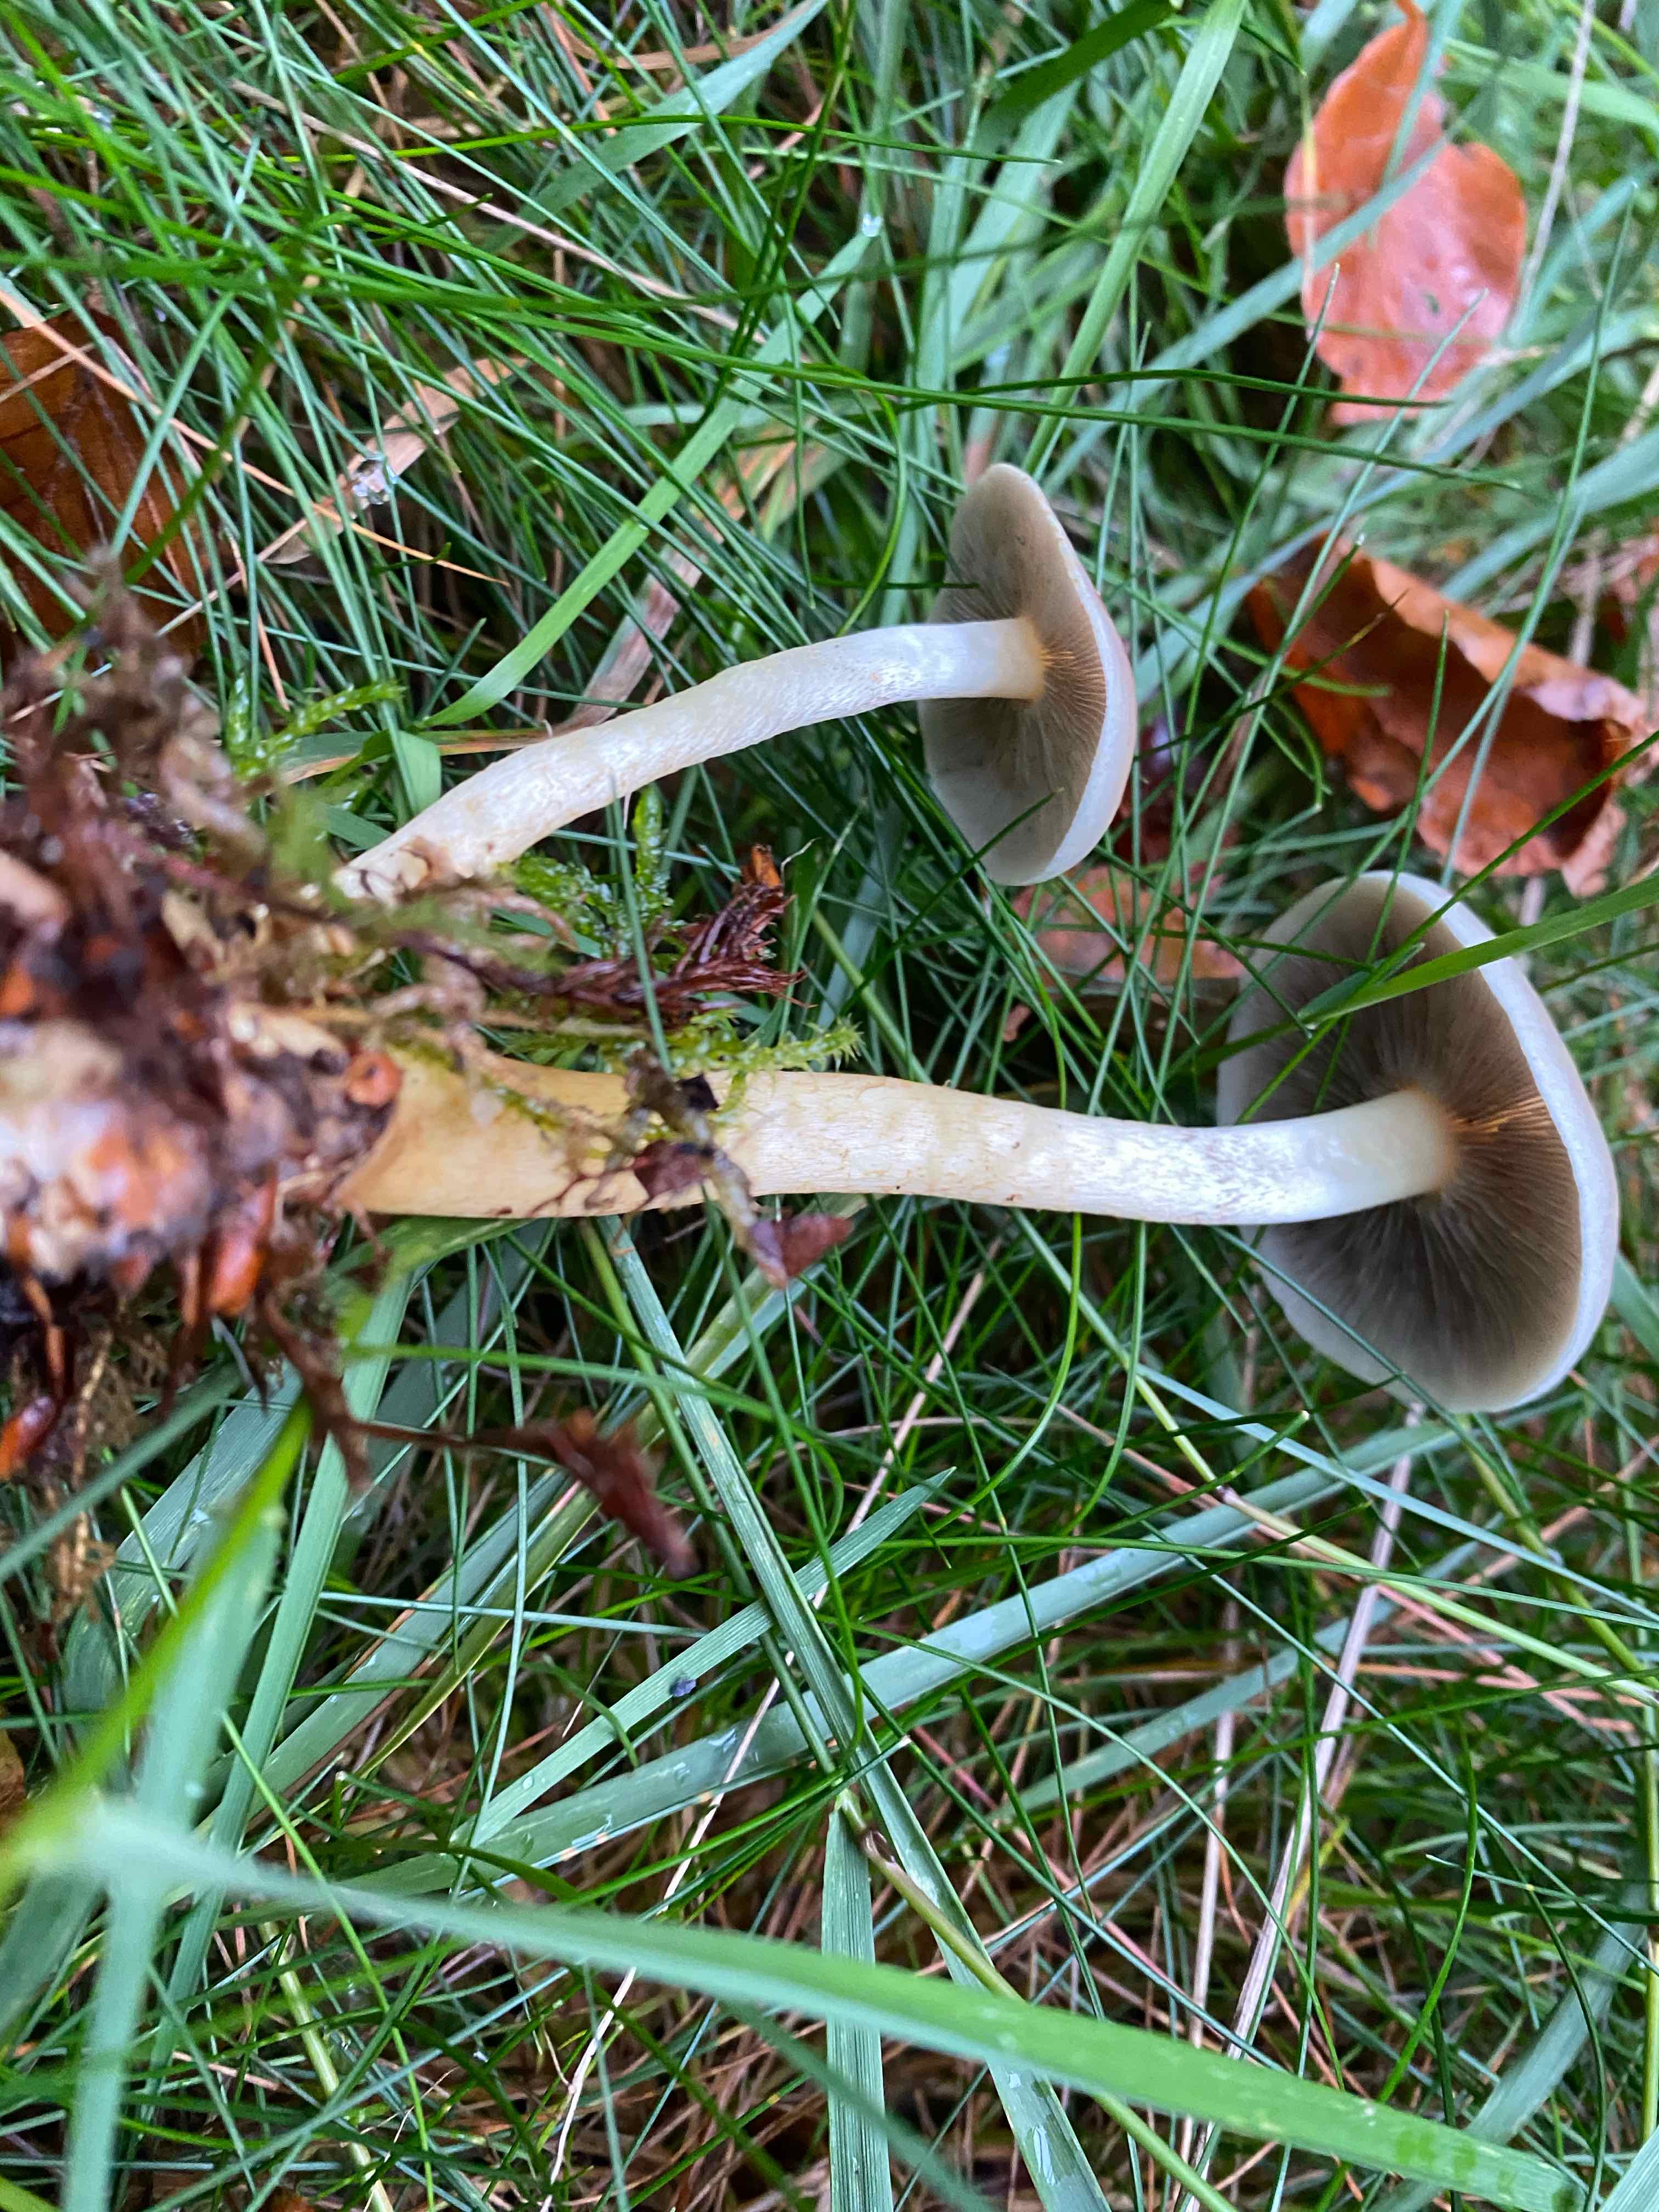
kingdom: Fungi
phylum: Basidiomycota
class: Agaricomycetes
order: Agaricales
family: Strophariaceae
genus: Hypholoma
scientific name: Hypholoma fasciculare
